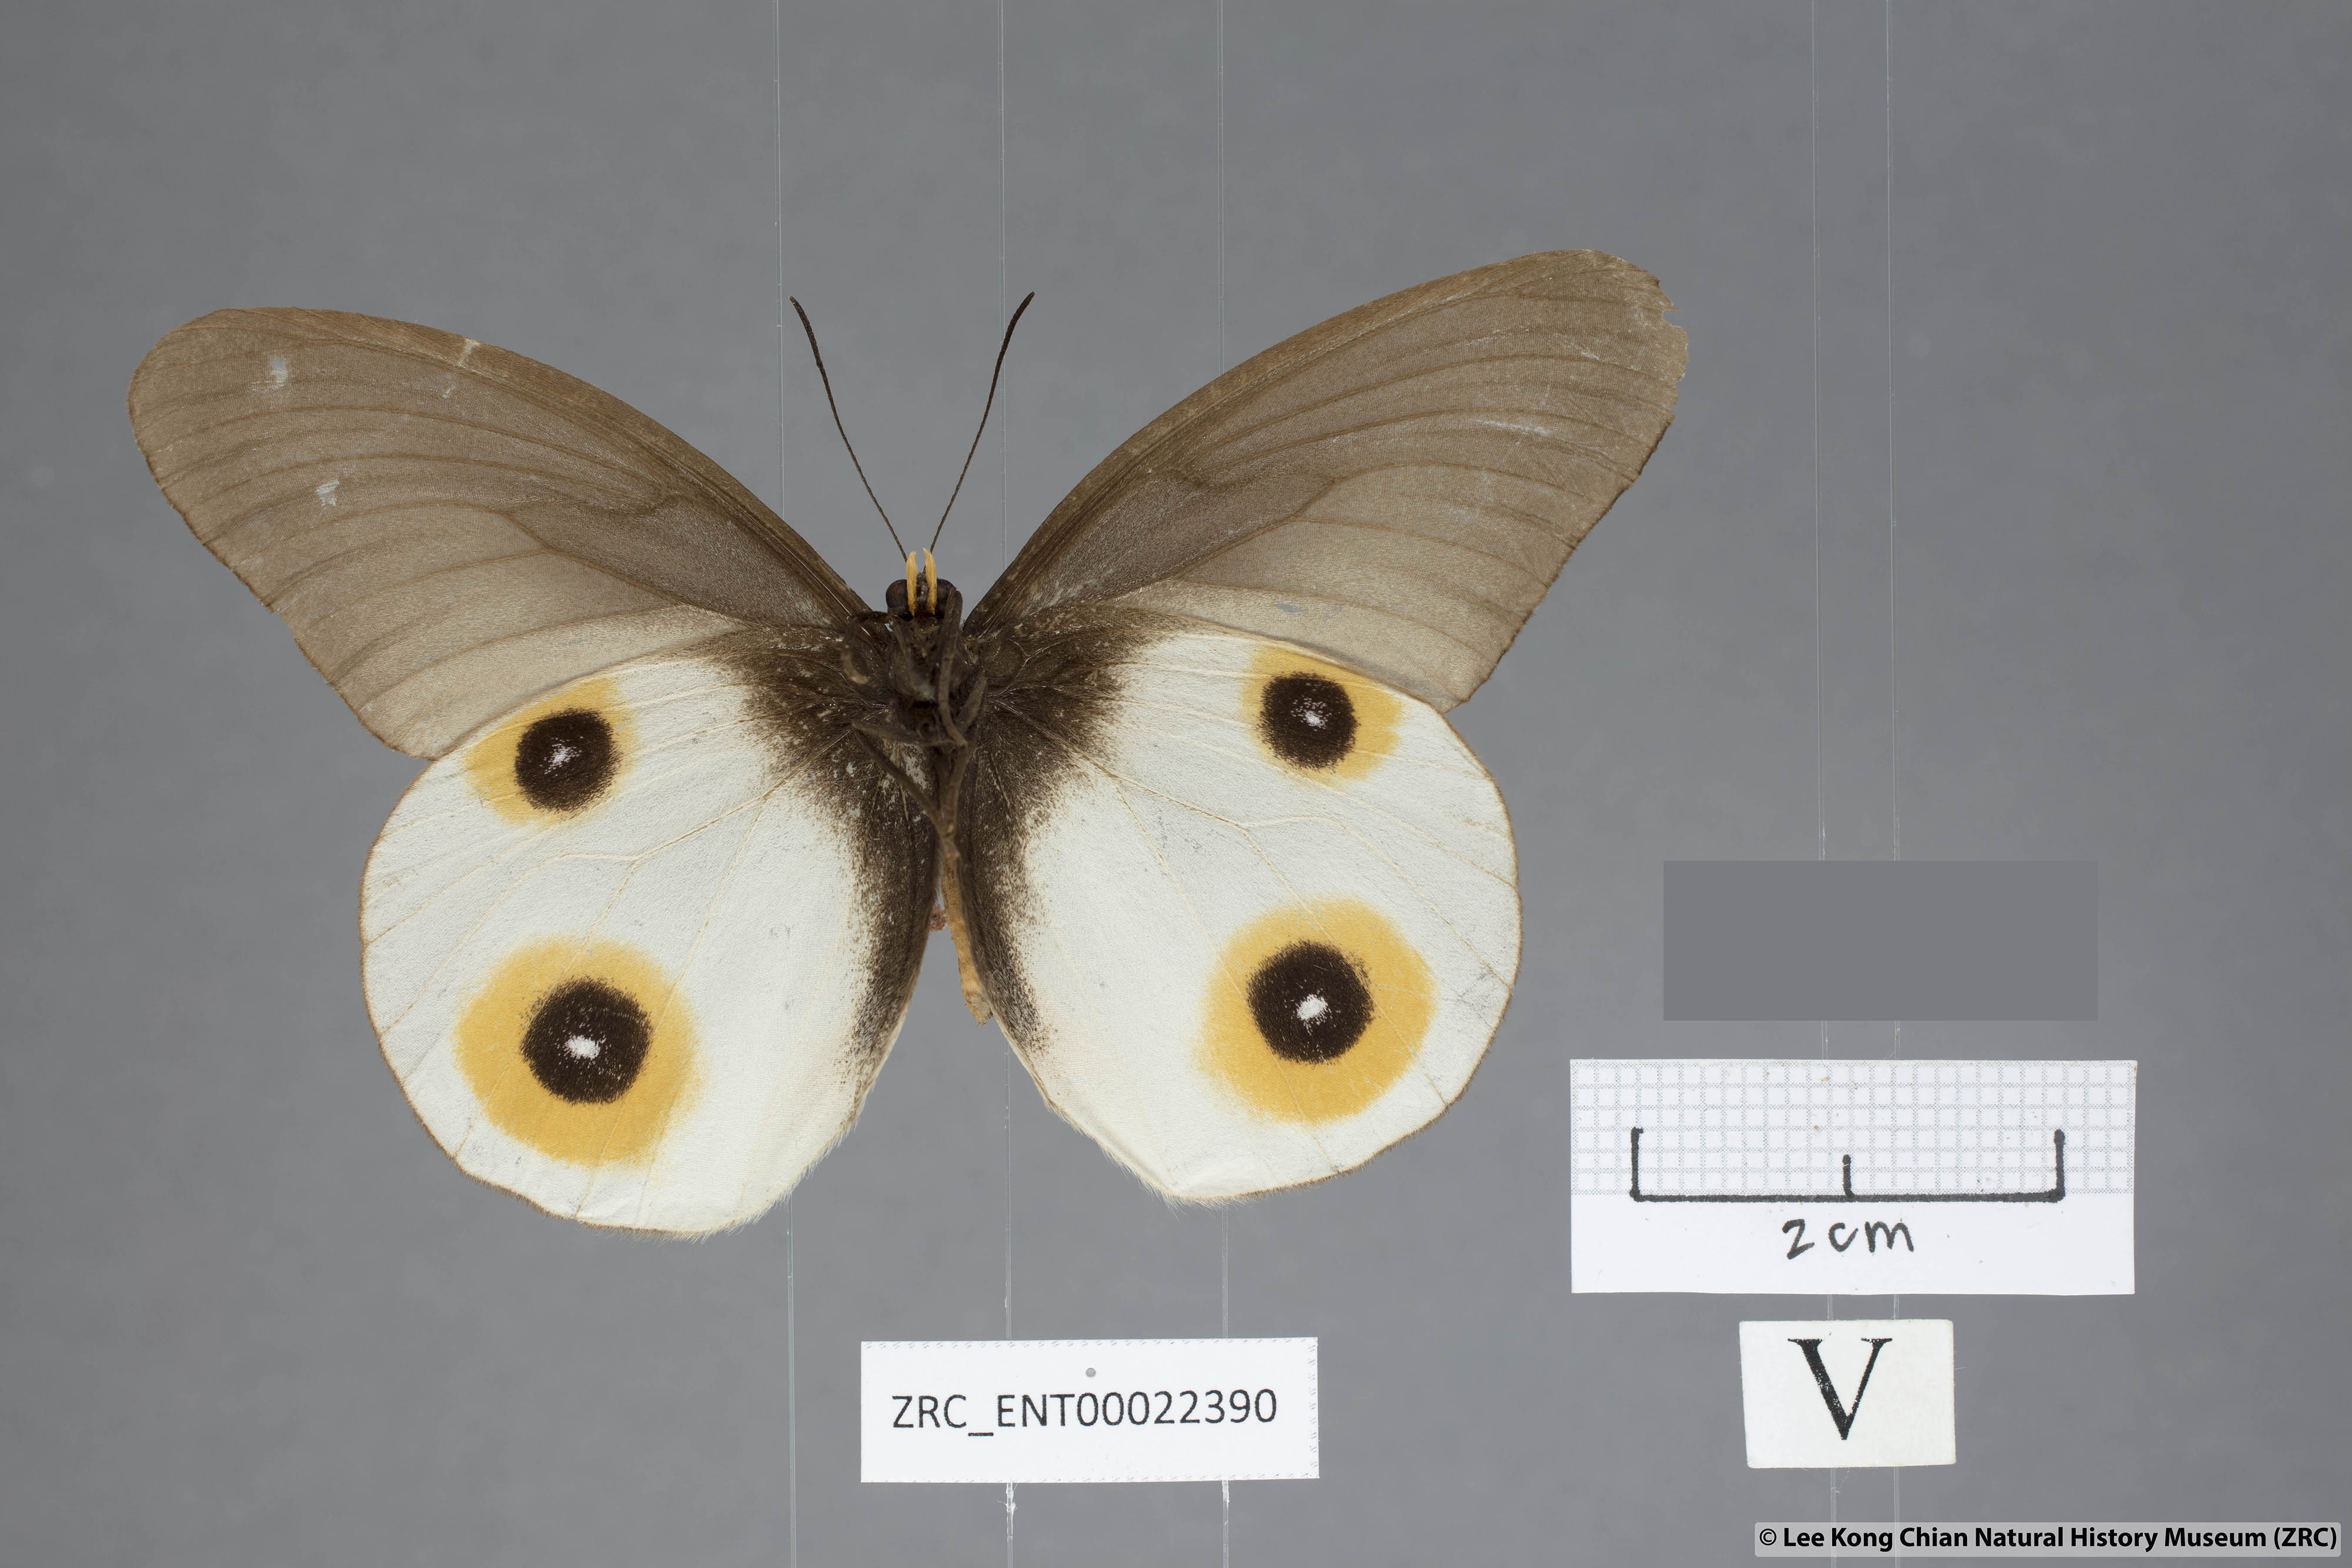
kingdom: Animalia
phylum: Arthropoda
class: Insecta
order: Lepidoptera
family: Nymphalidae
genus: Taenaris
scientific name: Taenaris horsfieldii
